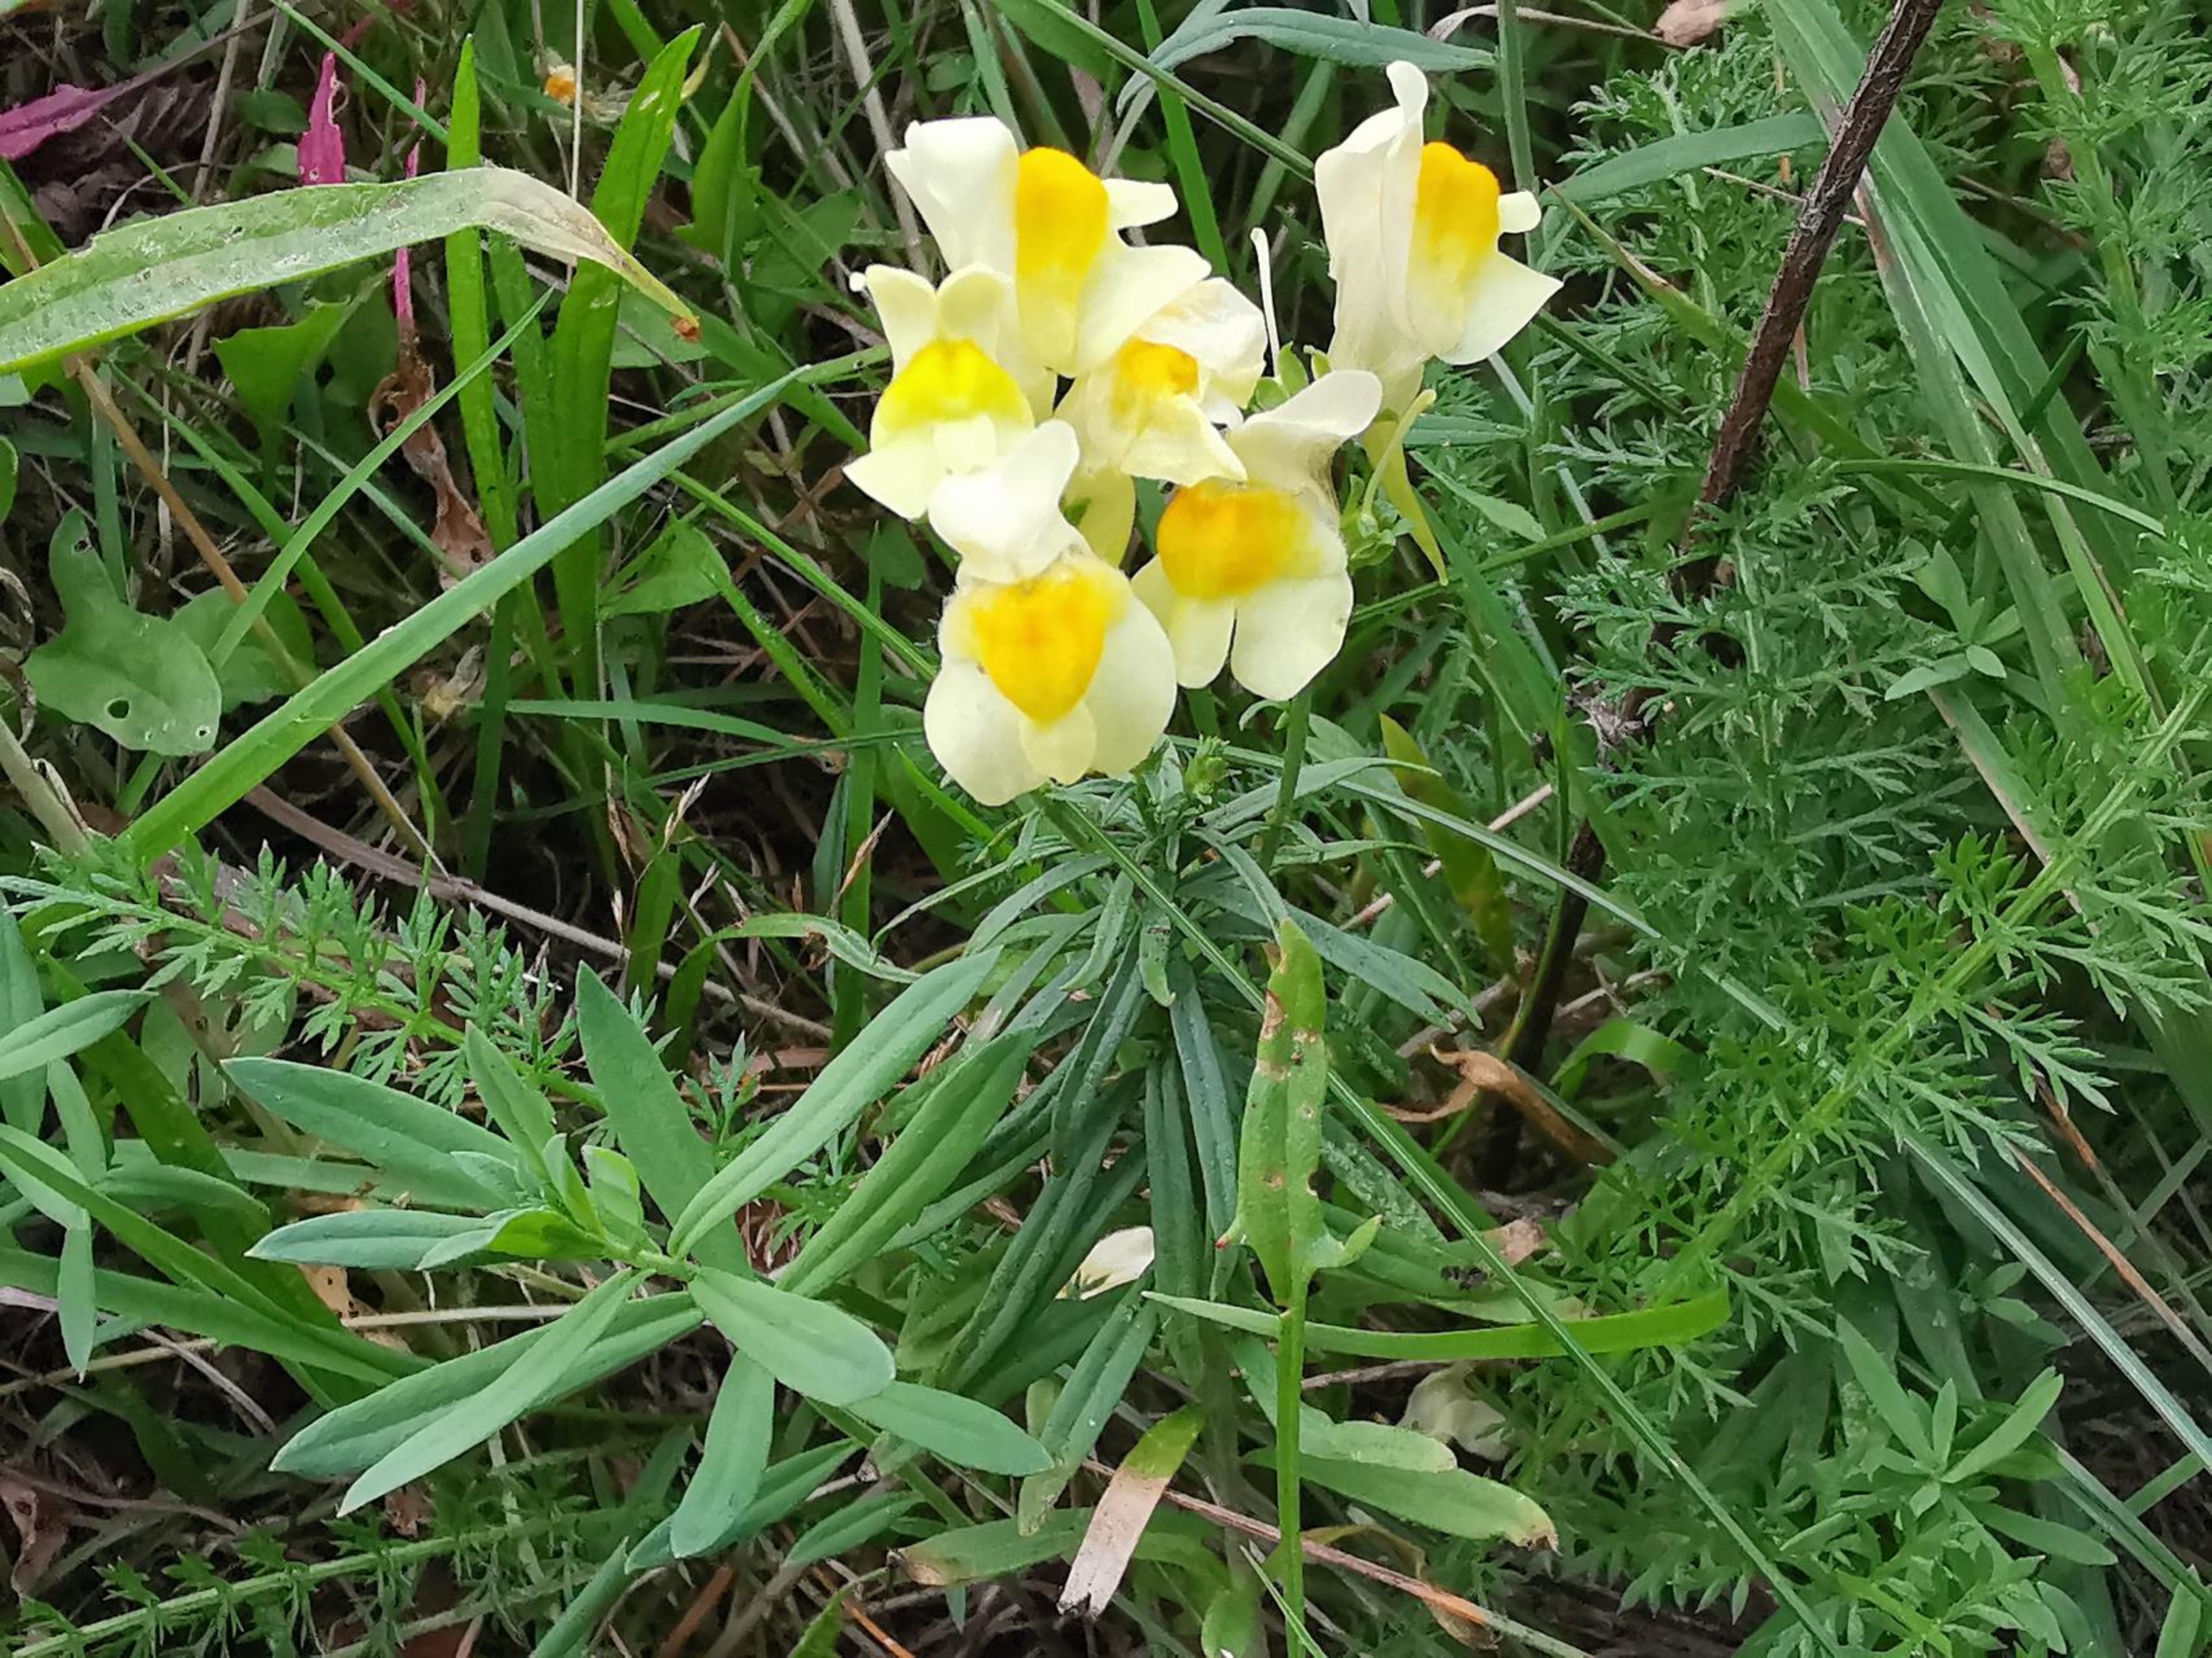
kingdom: Plantae
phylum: Tracheophyta
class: Magnoliopsida
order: Lamiales
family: Plantaginaceae
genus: Linaria
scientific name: Linaria vulgaris
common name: Almindelig torskemund
